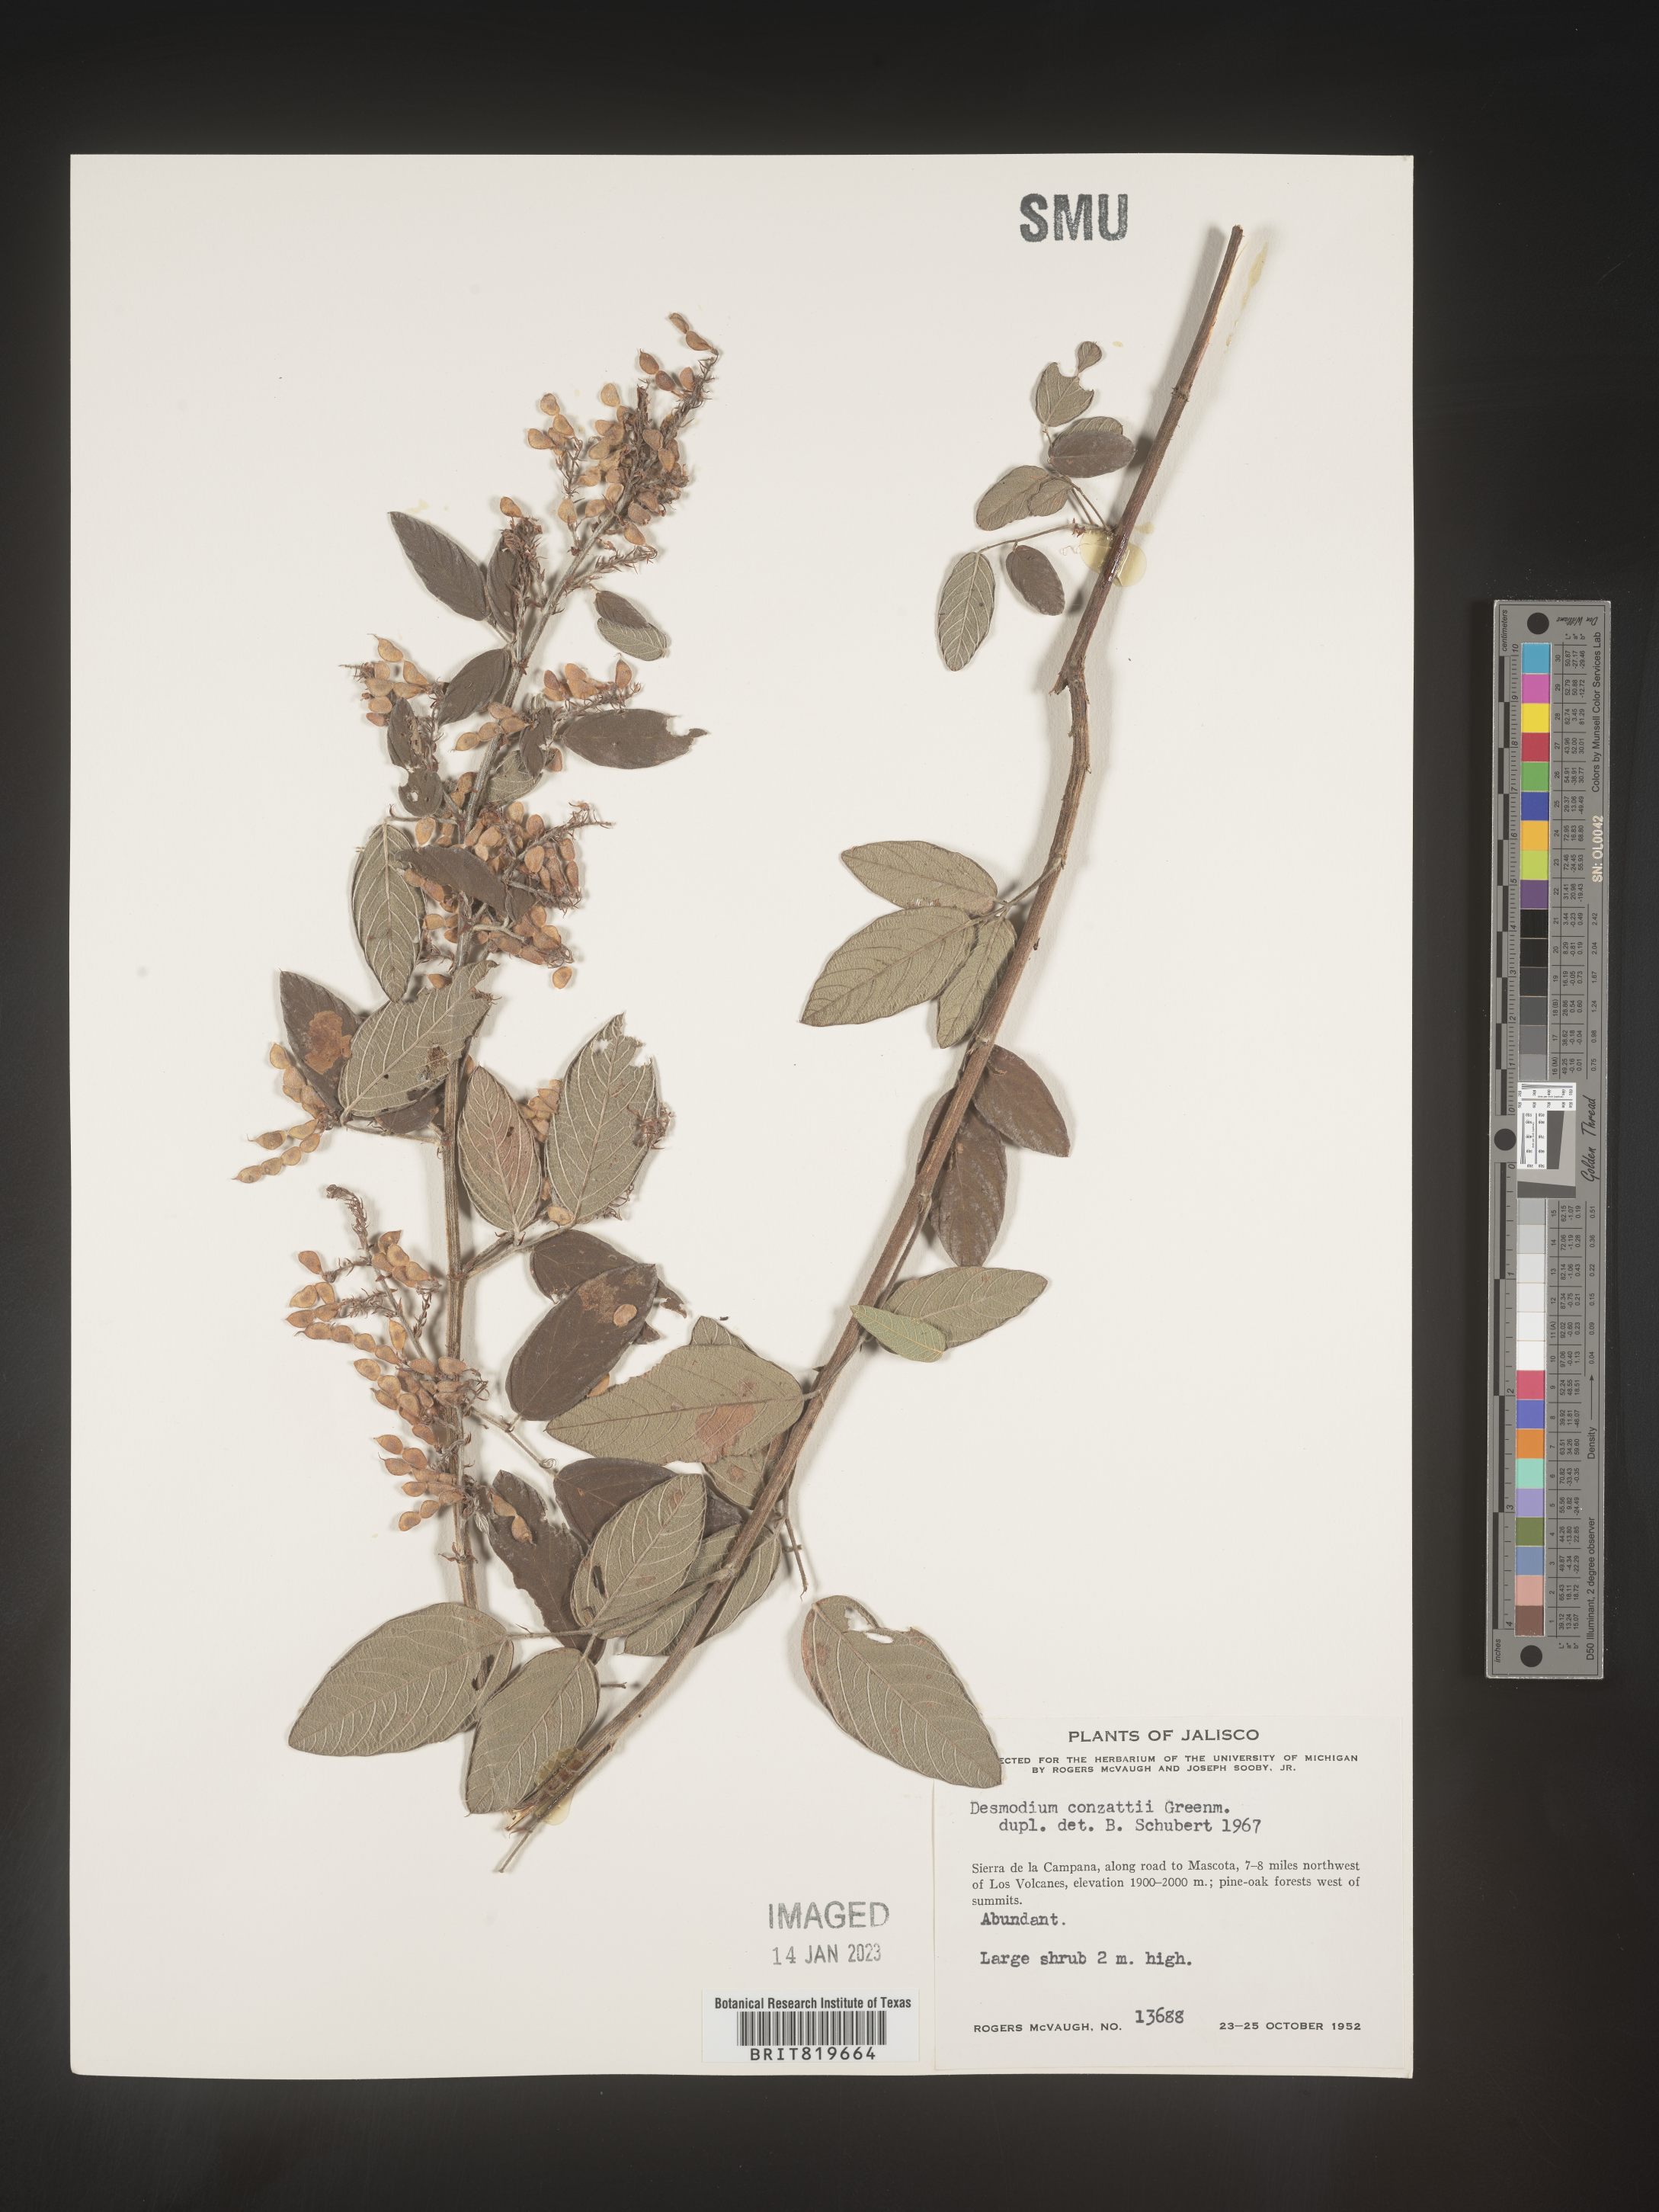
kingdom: Plantae
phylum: Tracheophyta
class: Magnoliopsida
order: Fabales
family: Fabaceae
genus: Desmodium
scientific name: Desmodium
